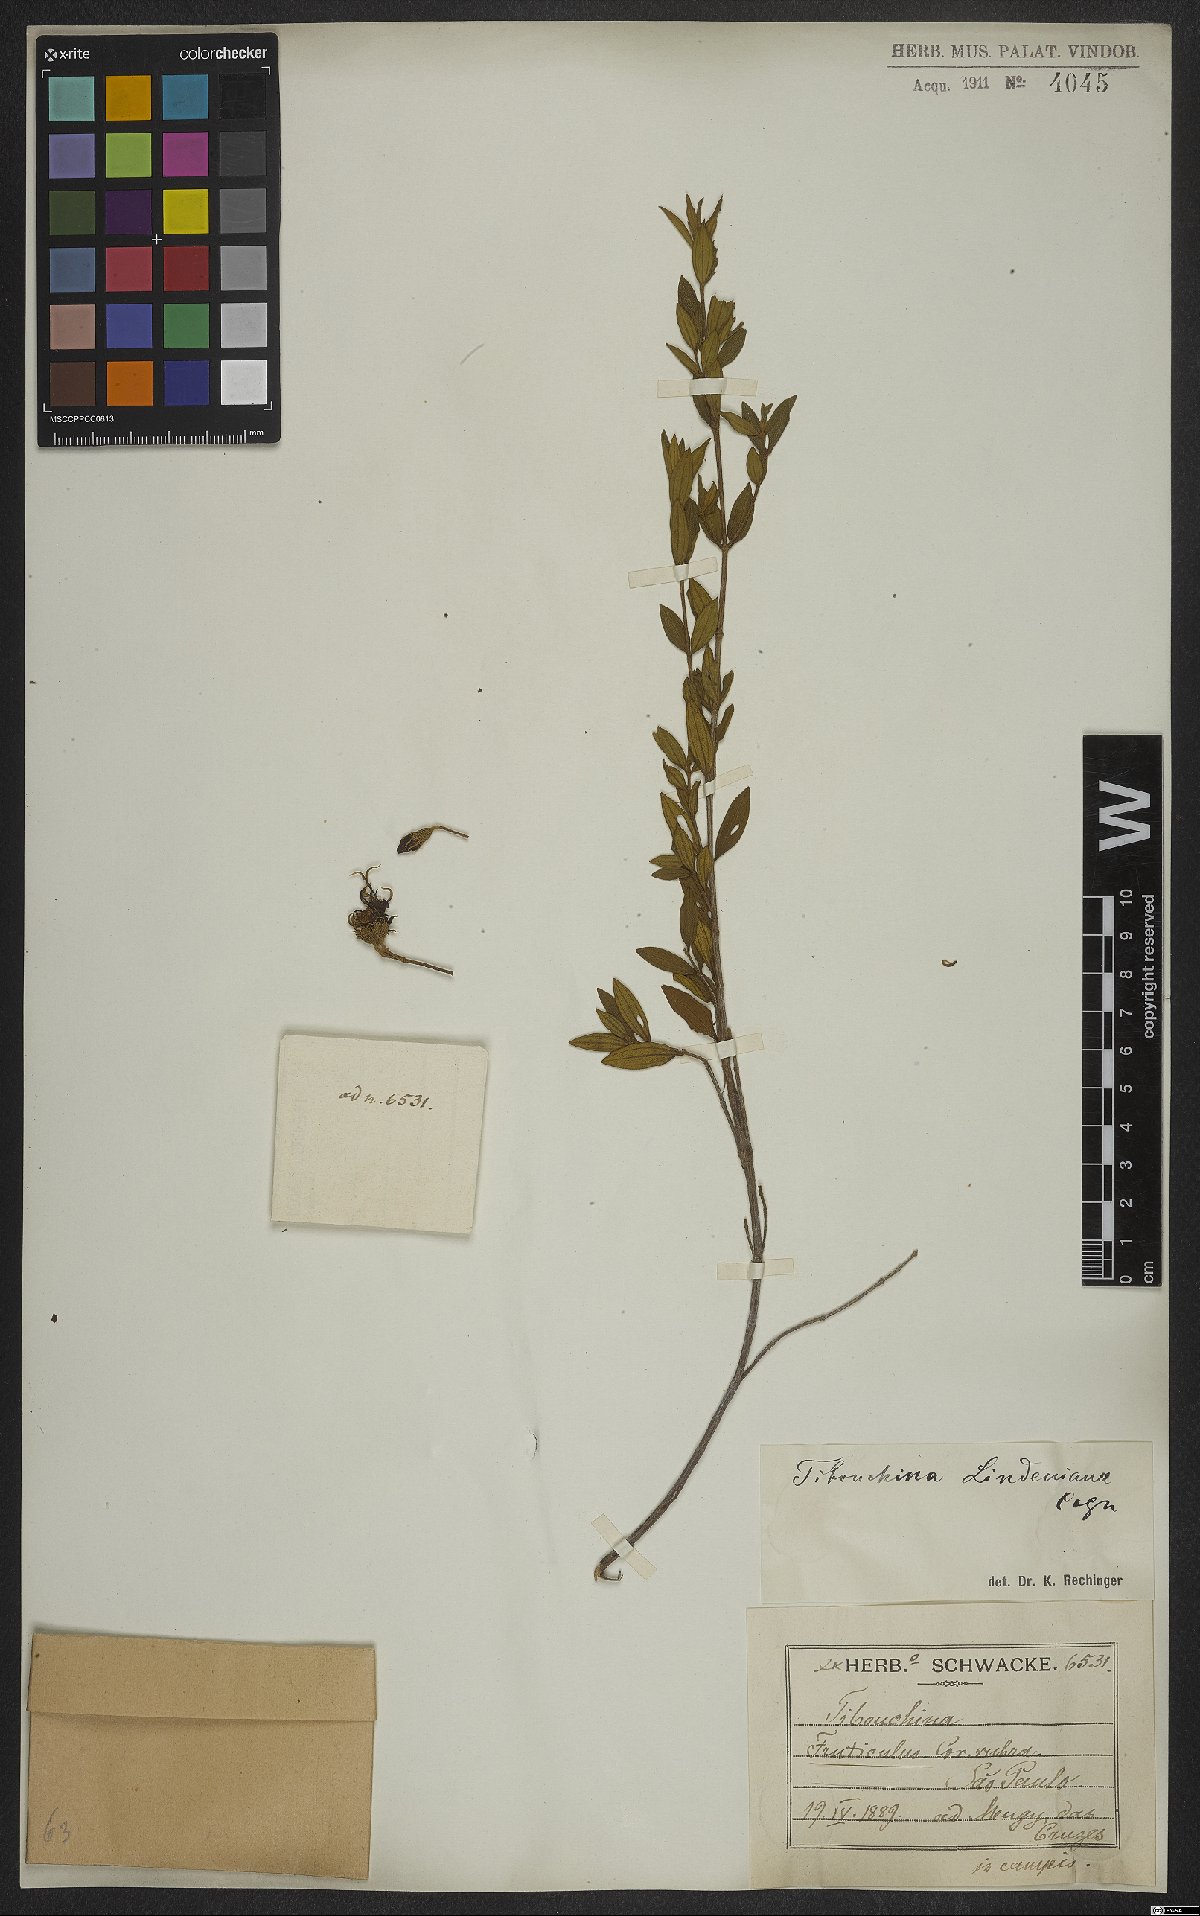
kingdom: Plantae
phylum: Tracheophyta
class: Magnoliopsida
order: Myrtales
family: Melastomataceae
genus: Pleroma
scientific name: Pleroma martiale
